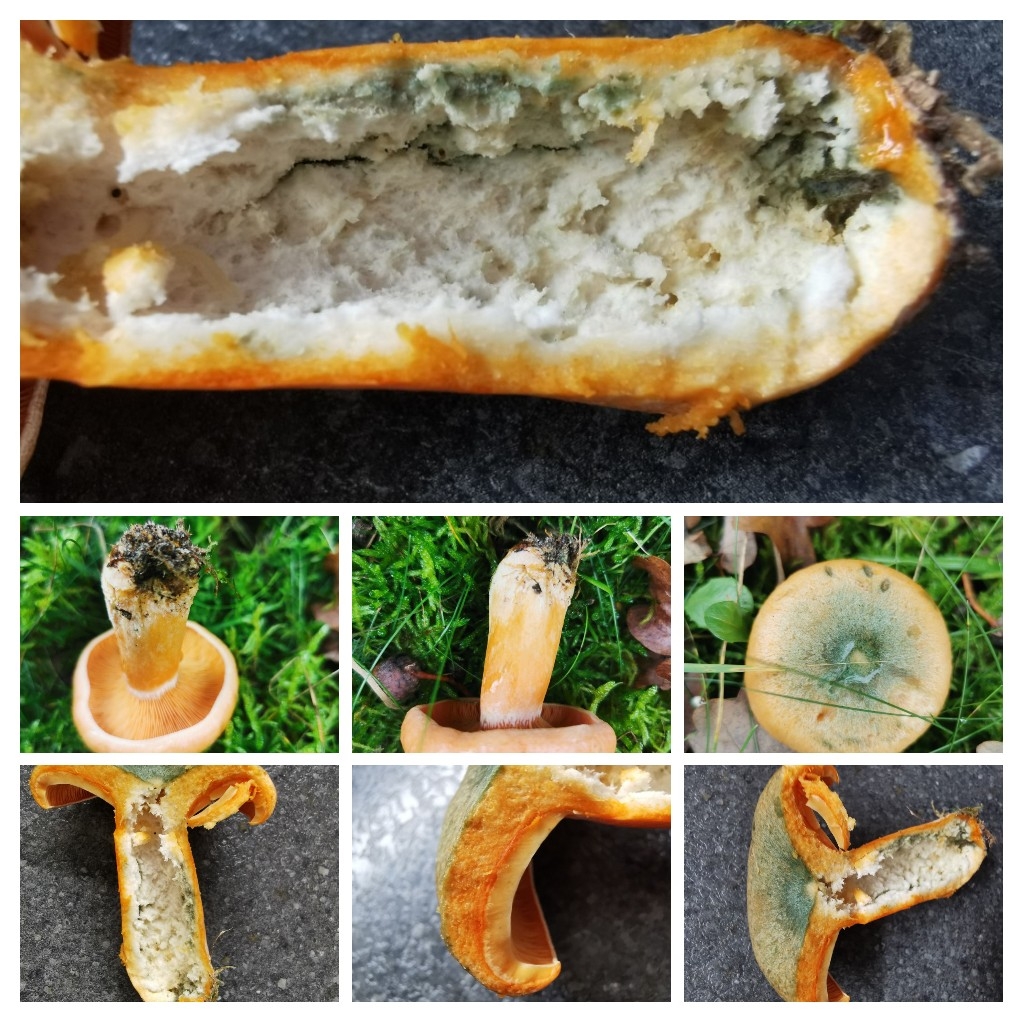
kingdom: Fungi
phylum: Basidiomycota
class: Agaricomycetes
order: Russulales
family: Russulaceae
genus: Lactarius
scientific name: Lactarius deterrimus
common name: gran-mælkehat
